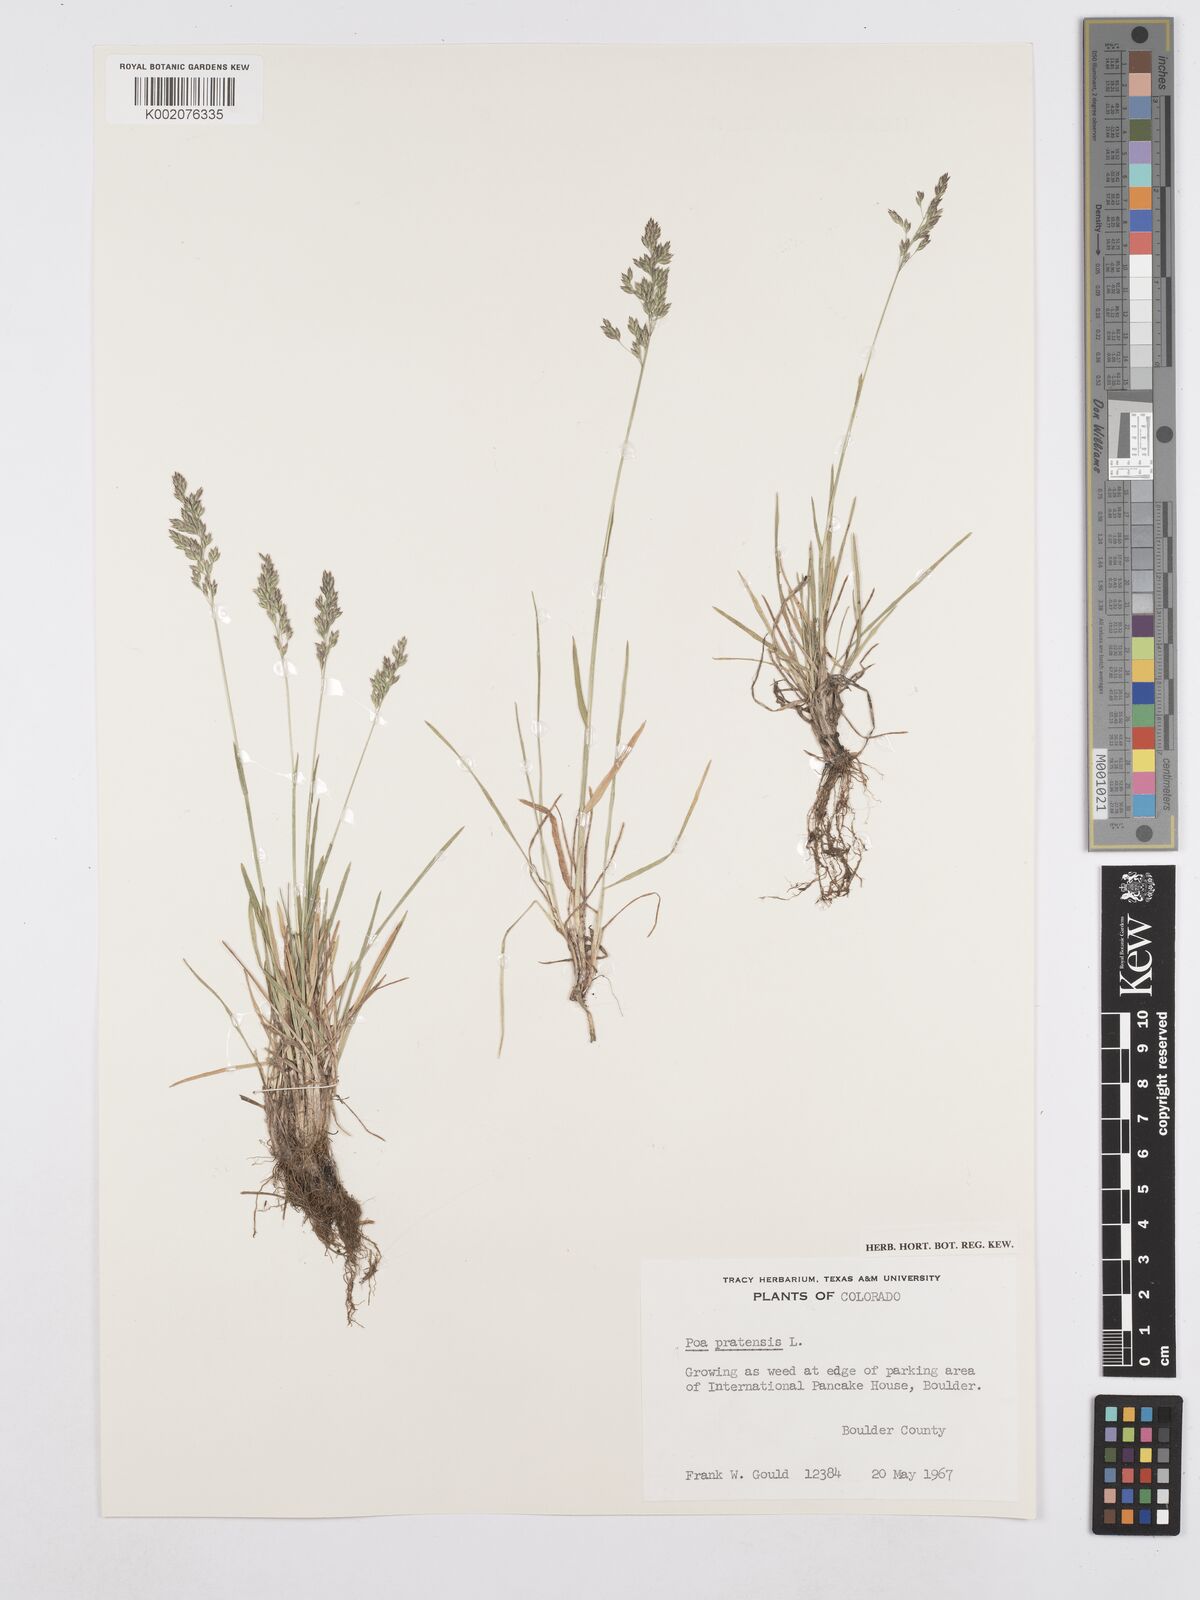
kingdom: Plantae
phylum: Tracheophyta
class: Liliopsida
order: Poales
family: Poaceae
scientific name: Poaceae
